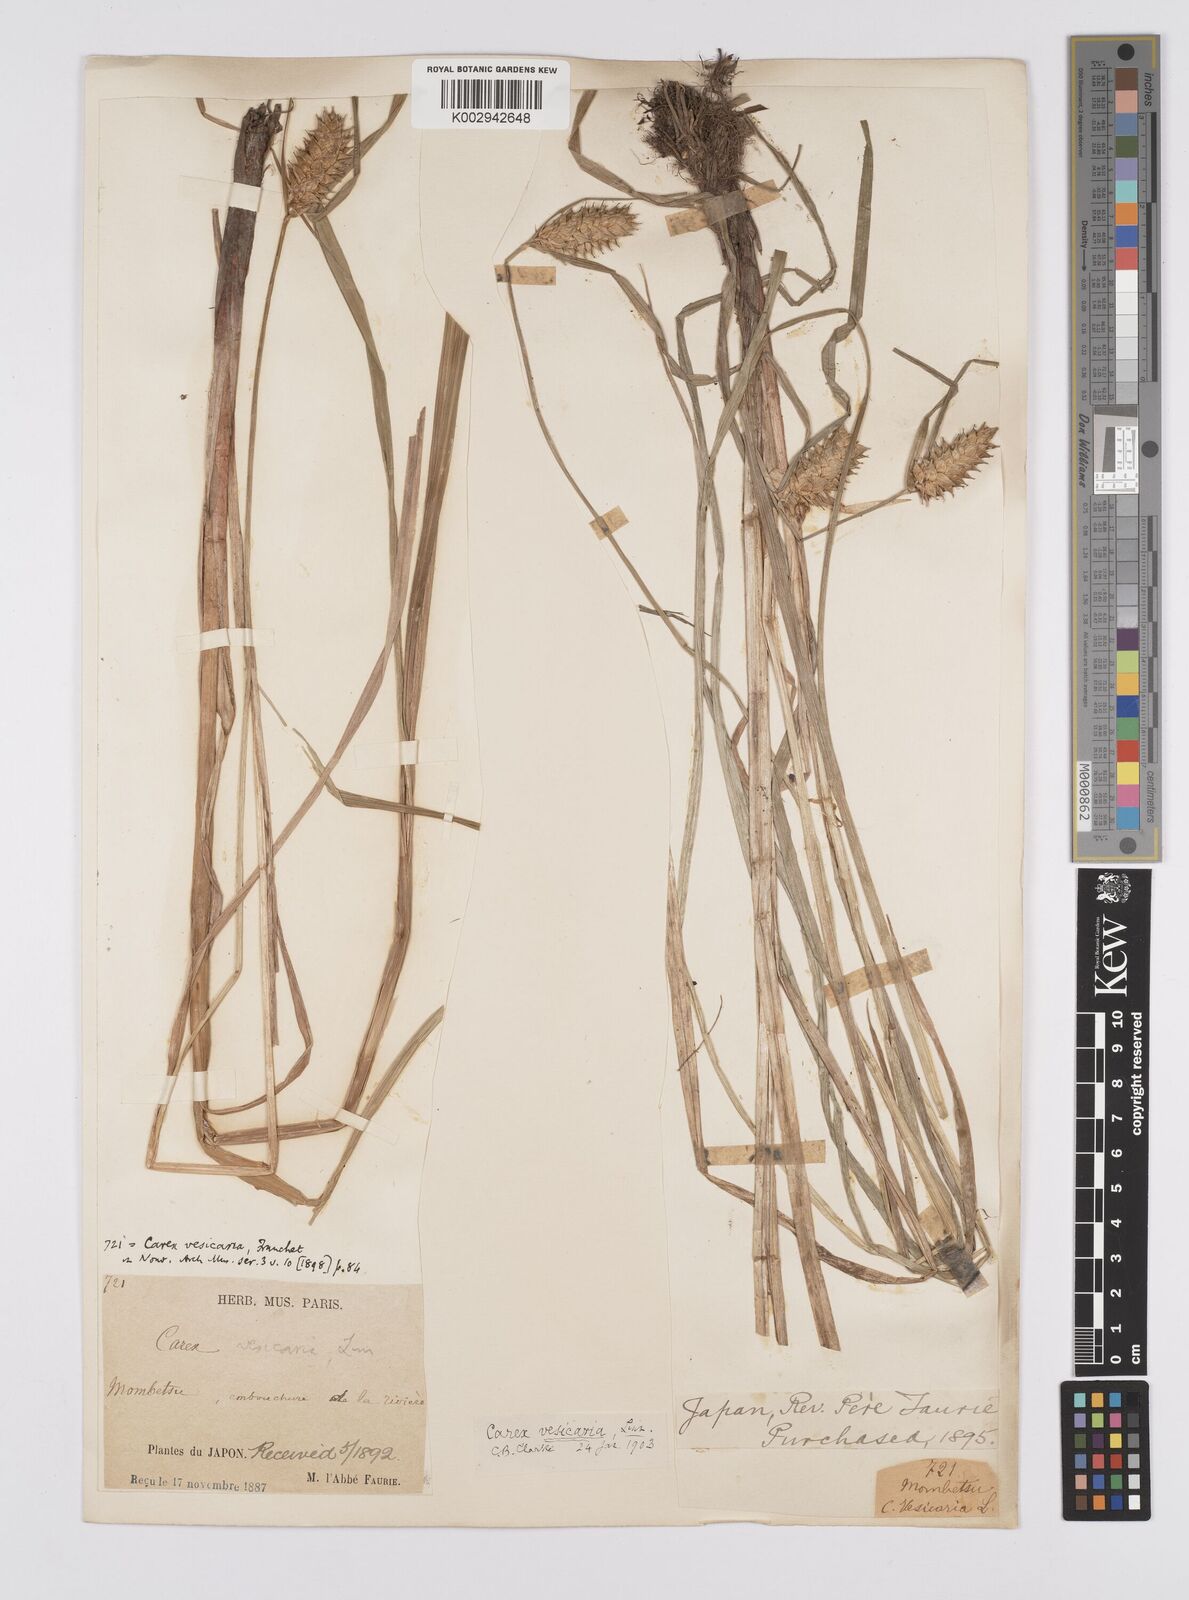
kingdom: Plantae
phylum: Tracheophyta
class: Liliopsida
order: Poales
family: Cyperaceae
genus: Carex
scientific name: Carex vesicaria
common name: Bladder-sedge
